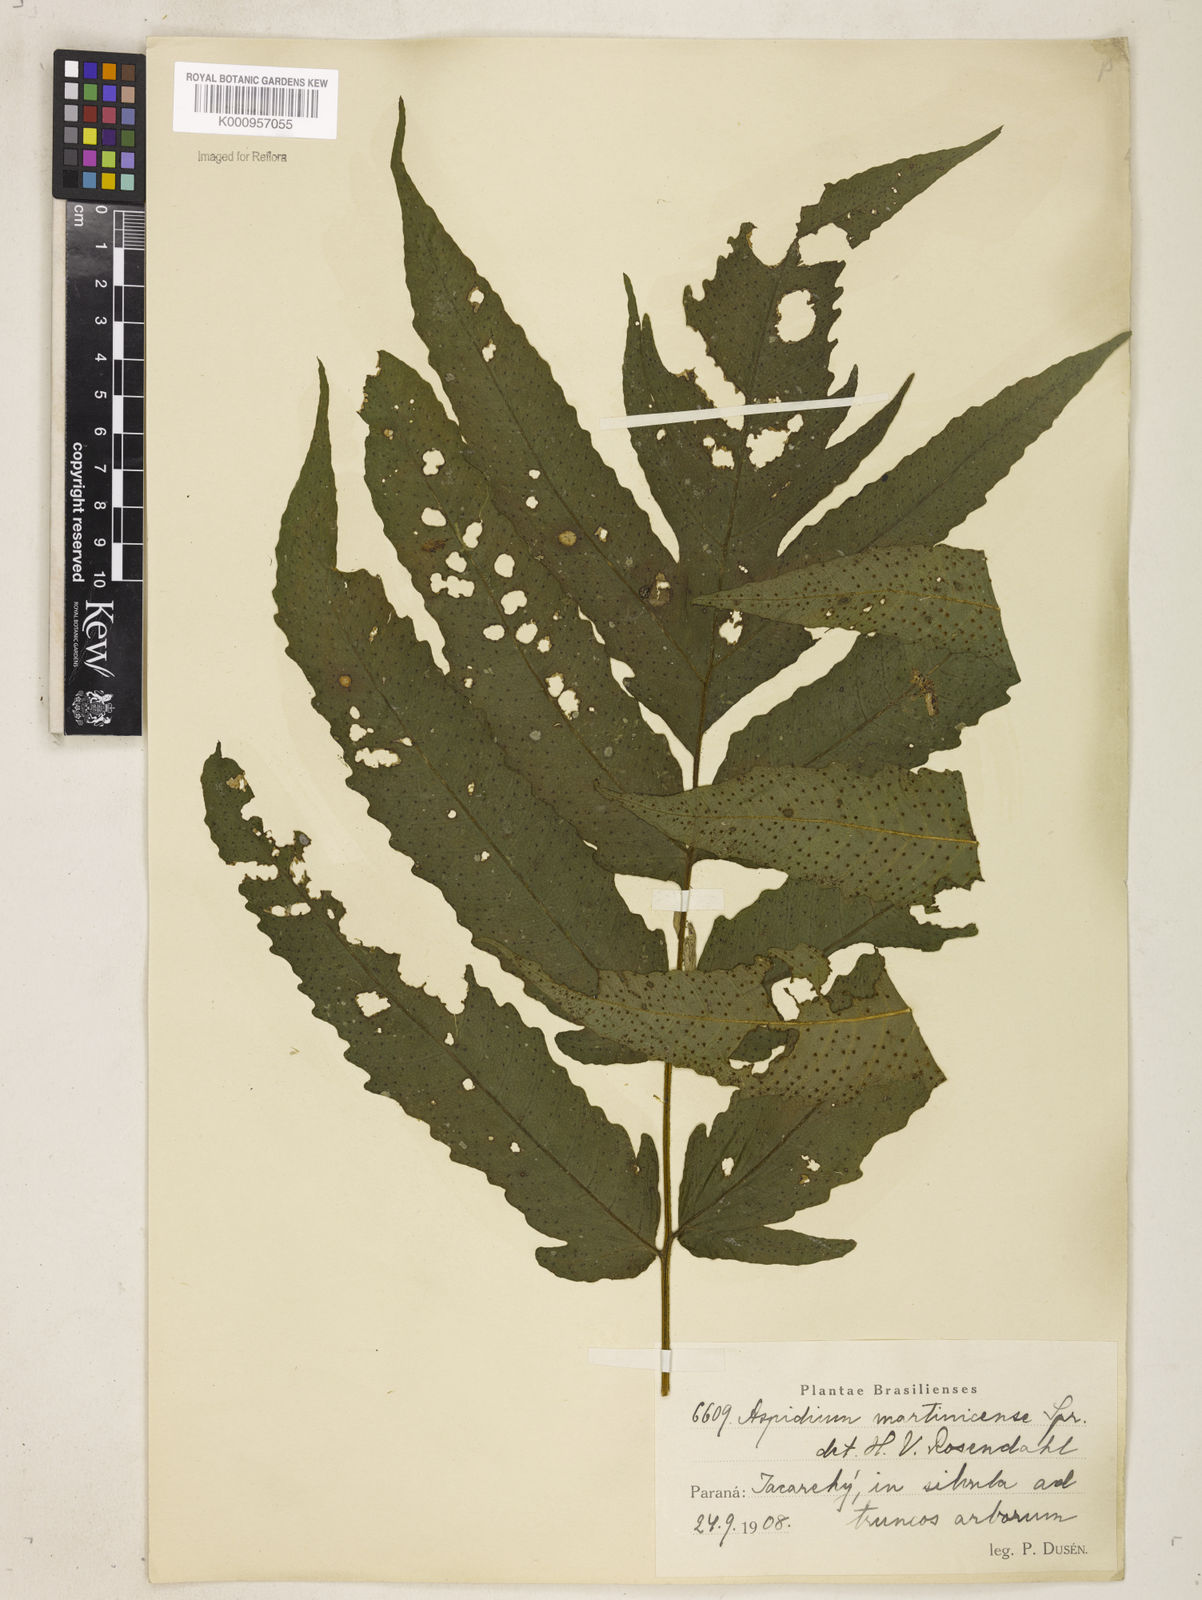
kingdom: Plantae
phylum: Tracheophyta
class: Polypodiopsida
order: Polypodiales
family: Tectariaceae
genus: Tectaria
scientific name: Tectaria incisa
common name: Incised halberd fern
